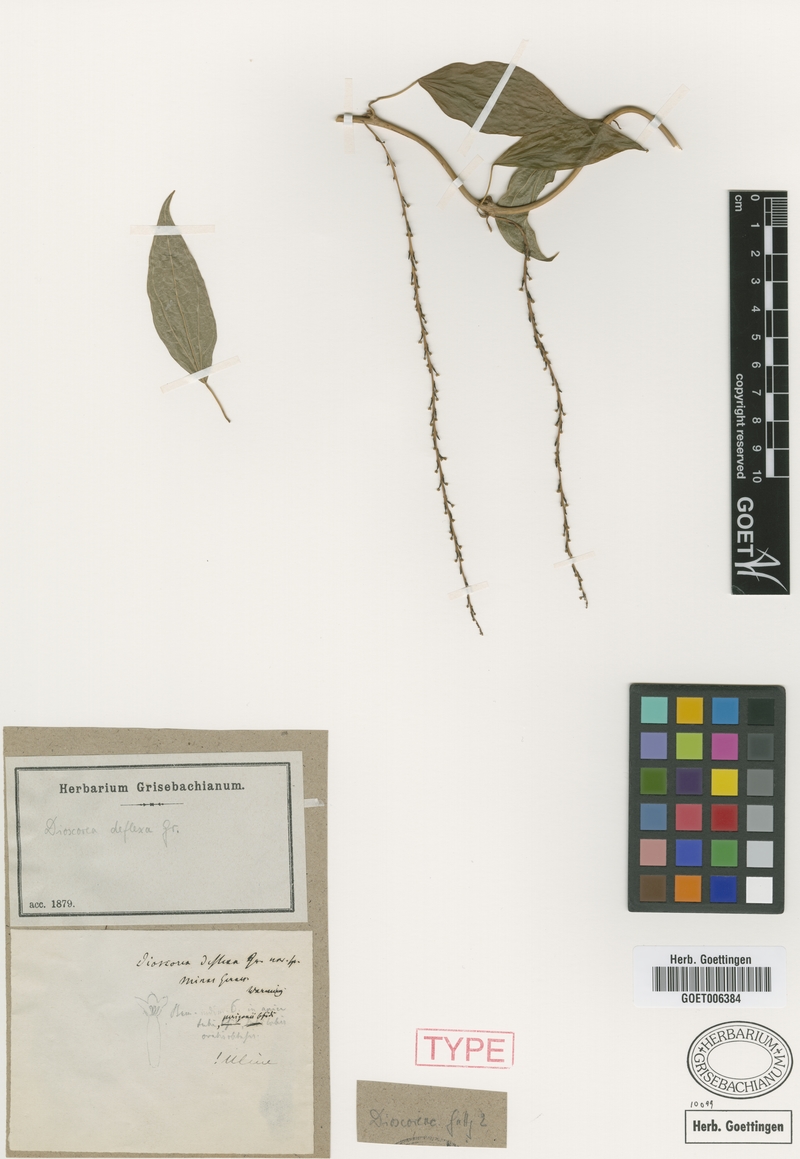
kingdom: Plantae
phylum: Tracheophyta
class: Liliopsida
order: Dioscoreales
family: Dioscoreaceae
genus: Dioscorea
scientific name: Dioscorea deflexa
